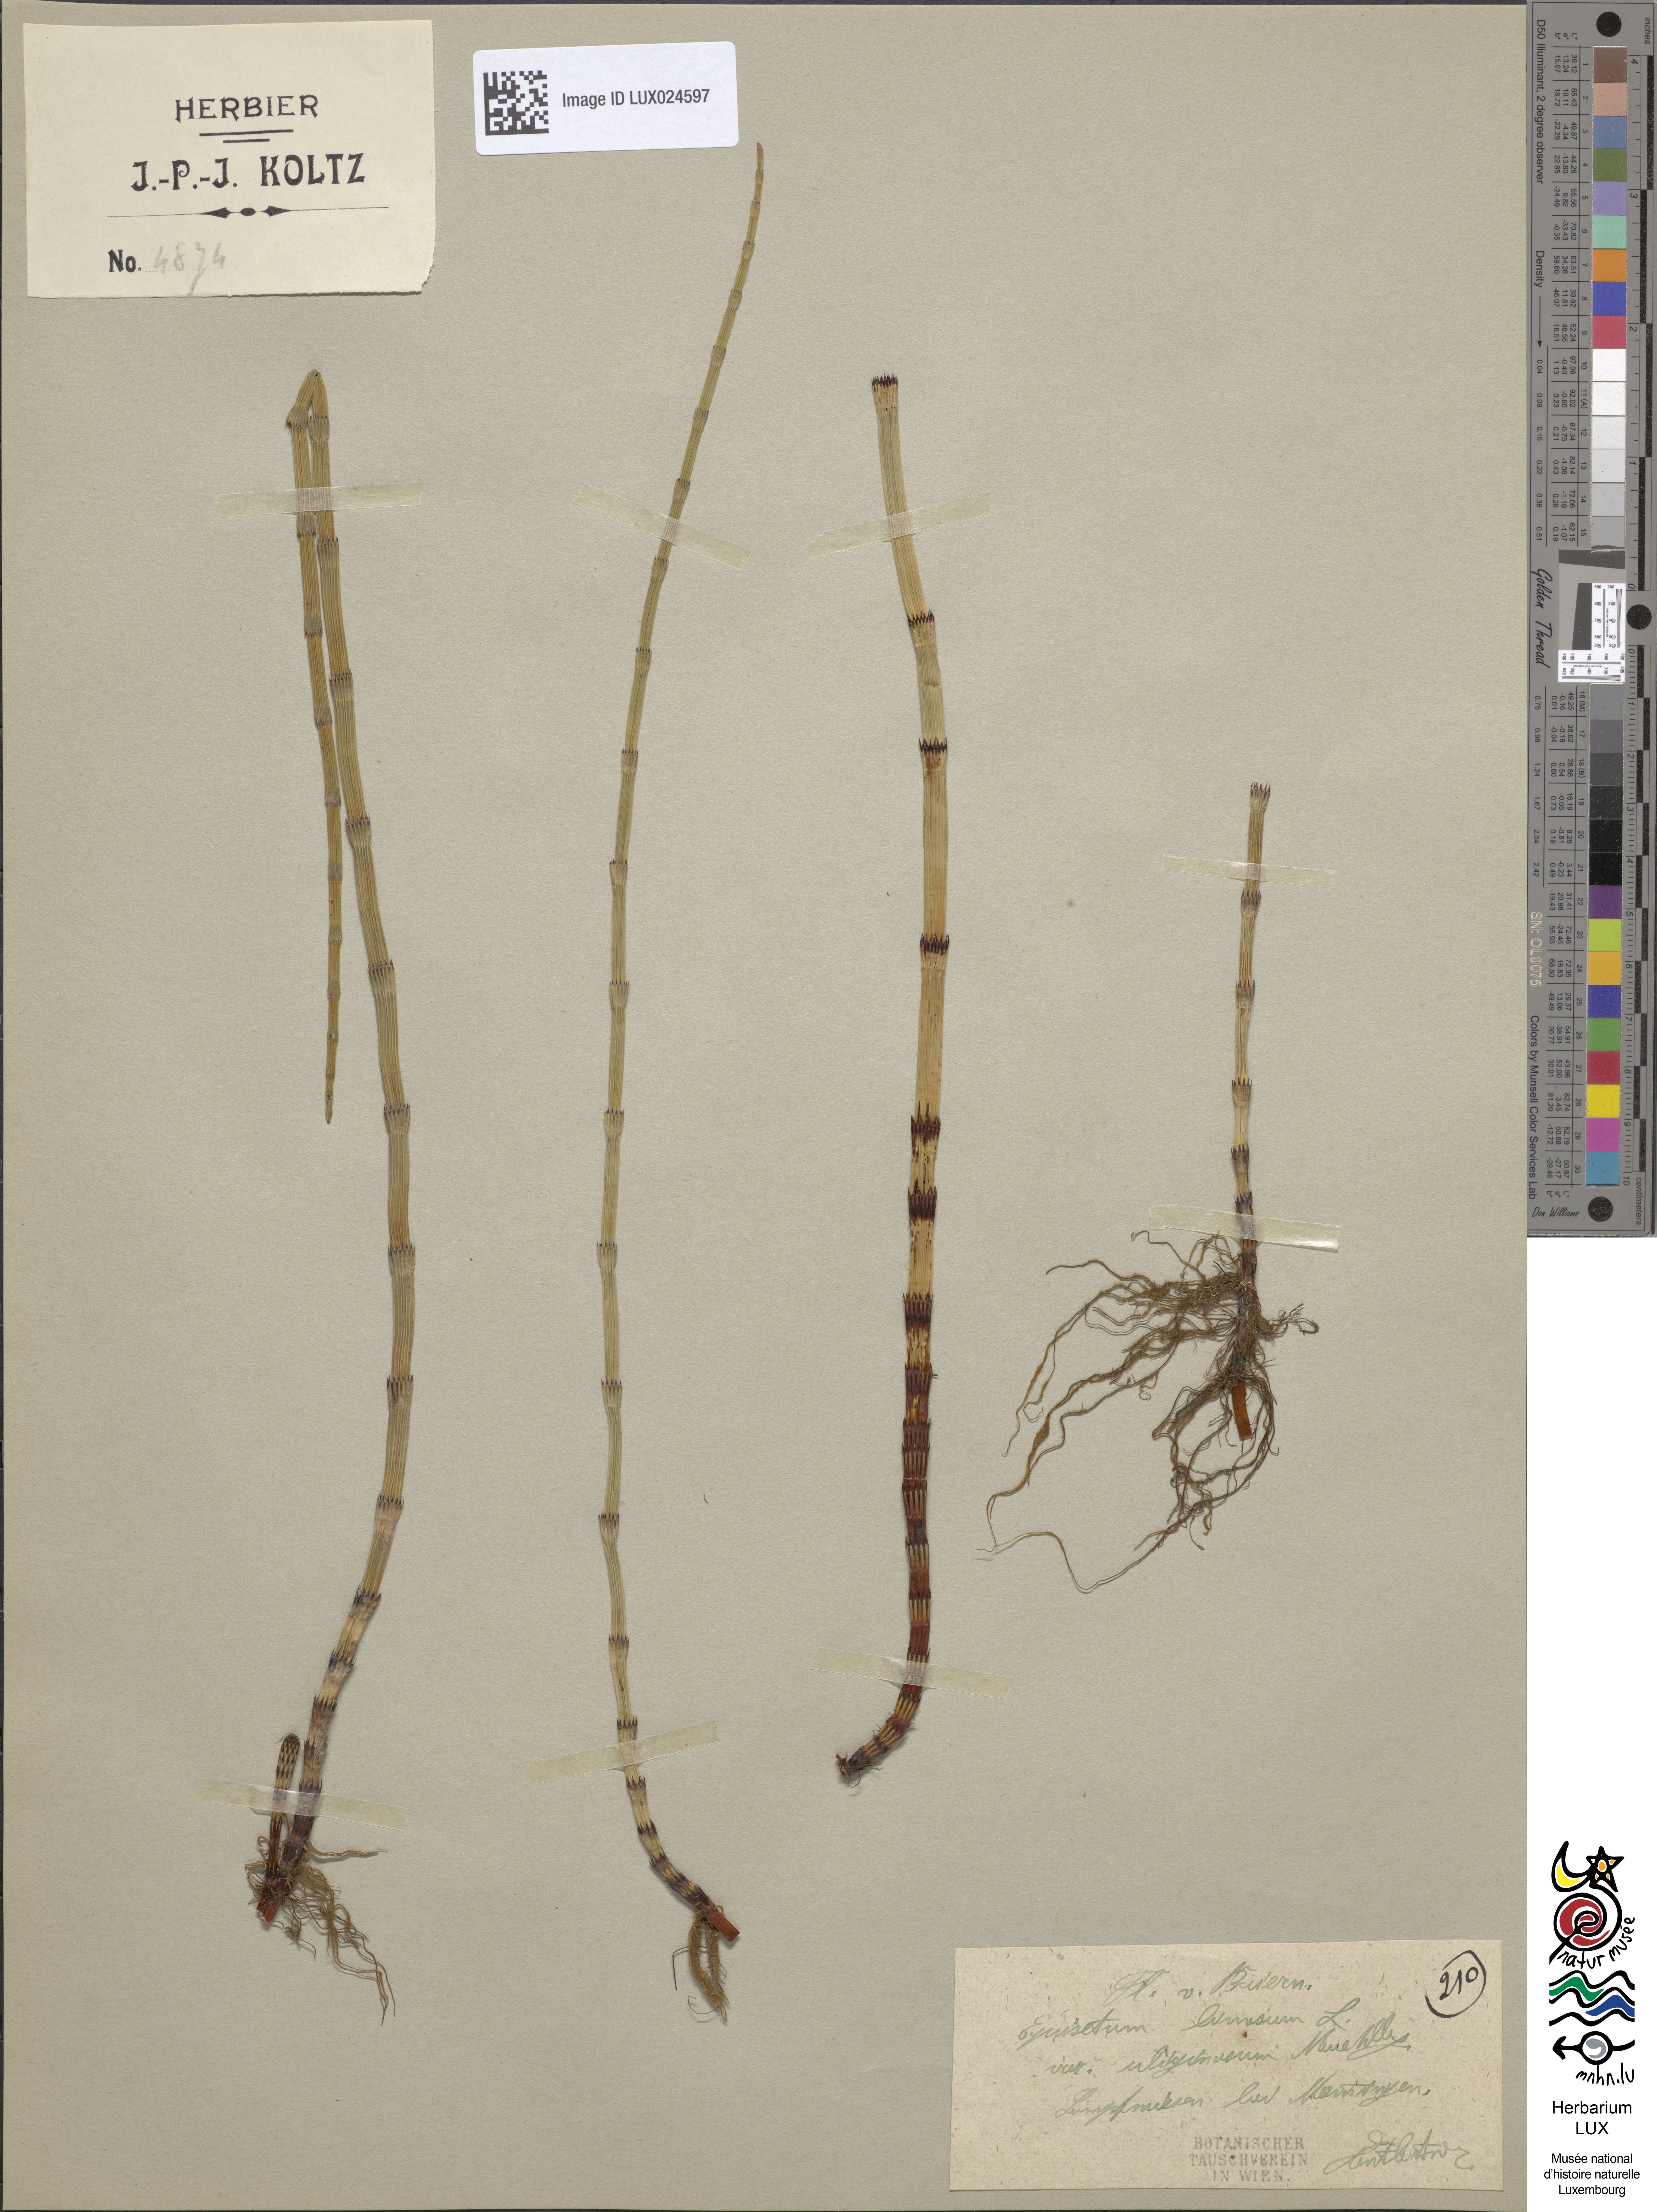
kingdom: Plantae
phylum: Tracheophyta
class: Polypodiopsida
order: Equisetales
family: Equisetaceae
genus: Equisetum
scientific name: Equisetum fluviatile
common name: Water horsetail
